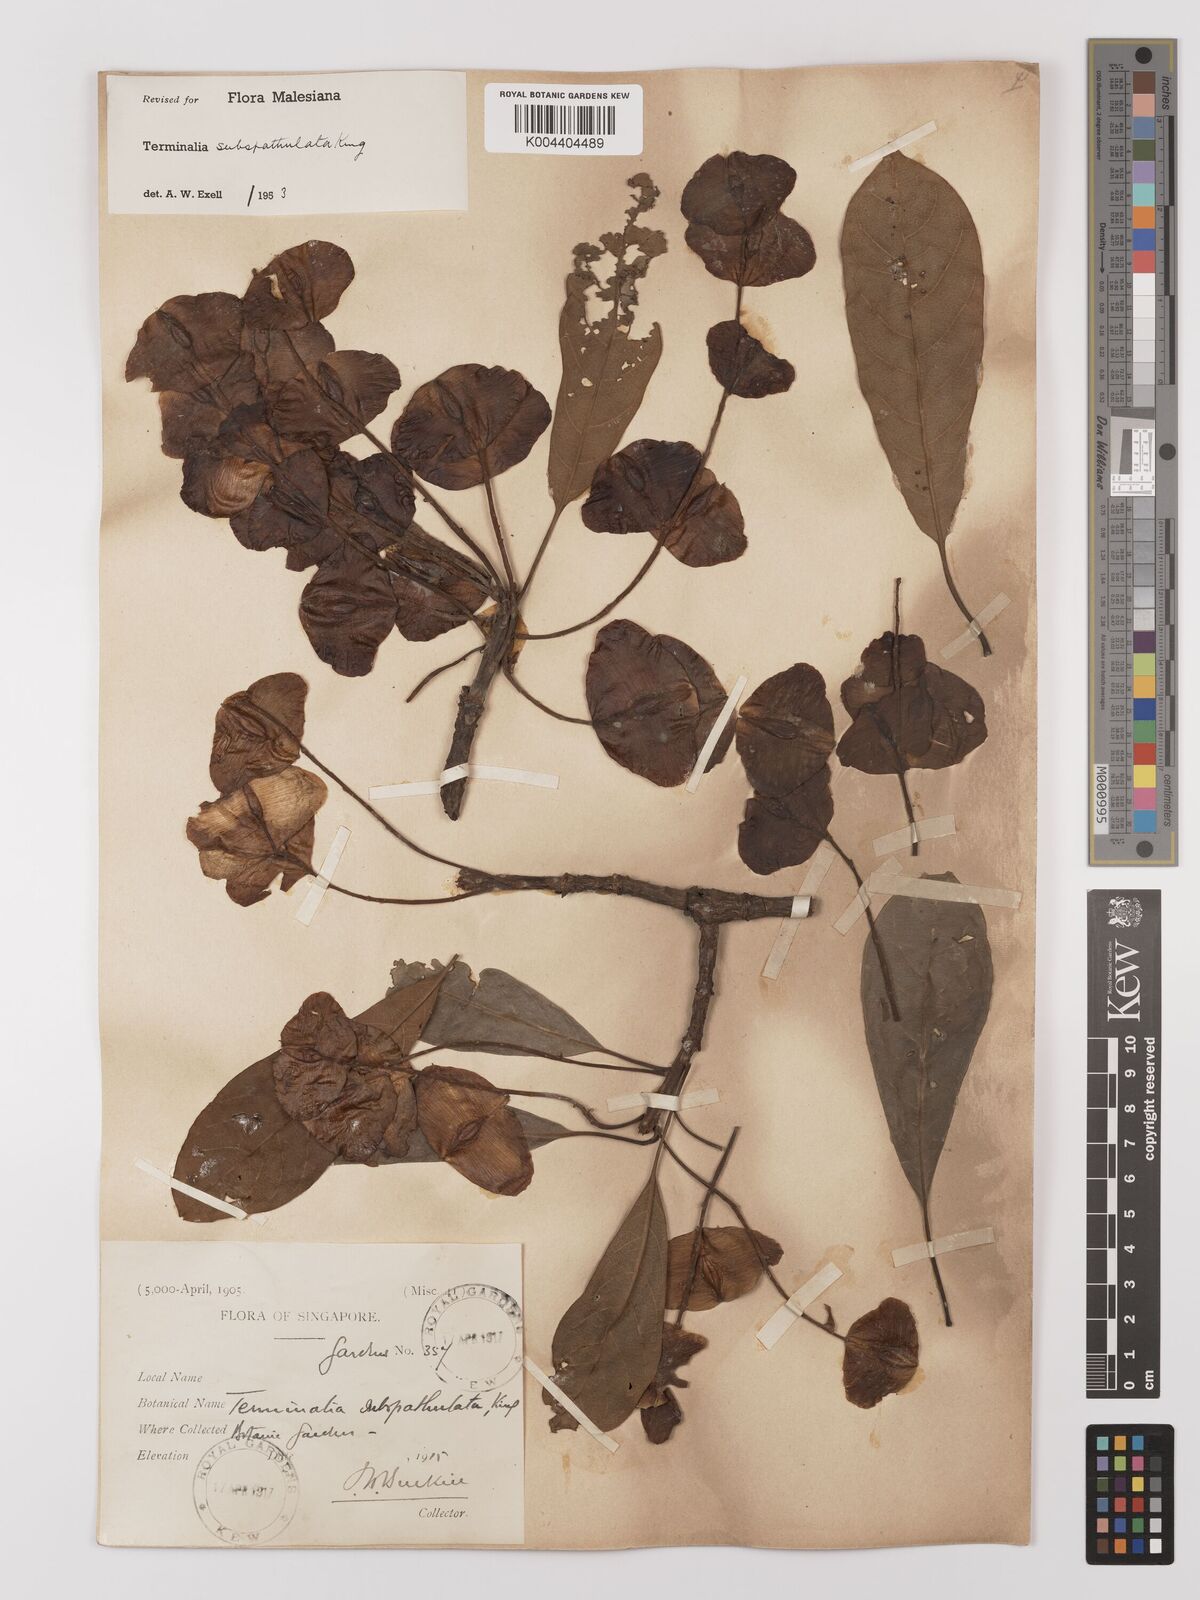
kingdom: Plantae
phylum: Tracheophyta
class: Magnoliopsida
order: Myrtales
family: Combretaceae
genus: Terminalia
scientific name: Terminalia subspathulata
